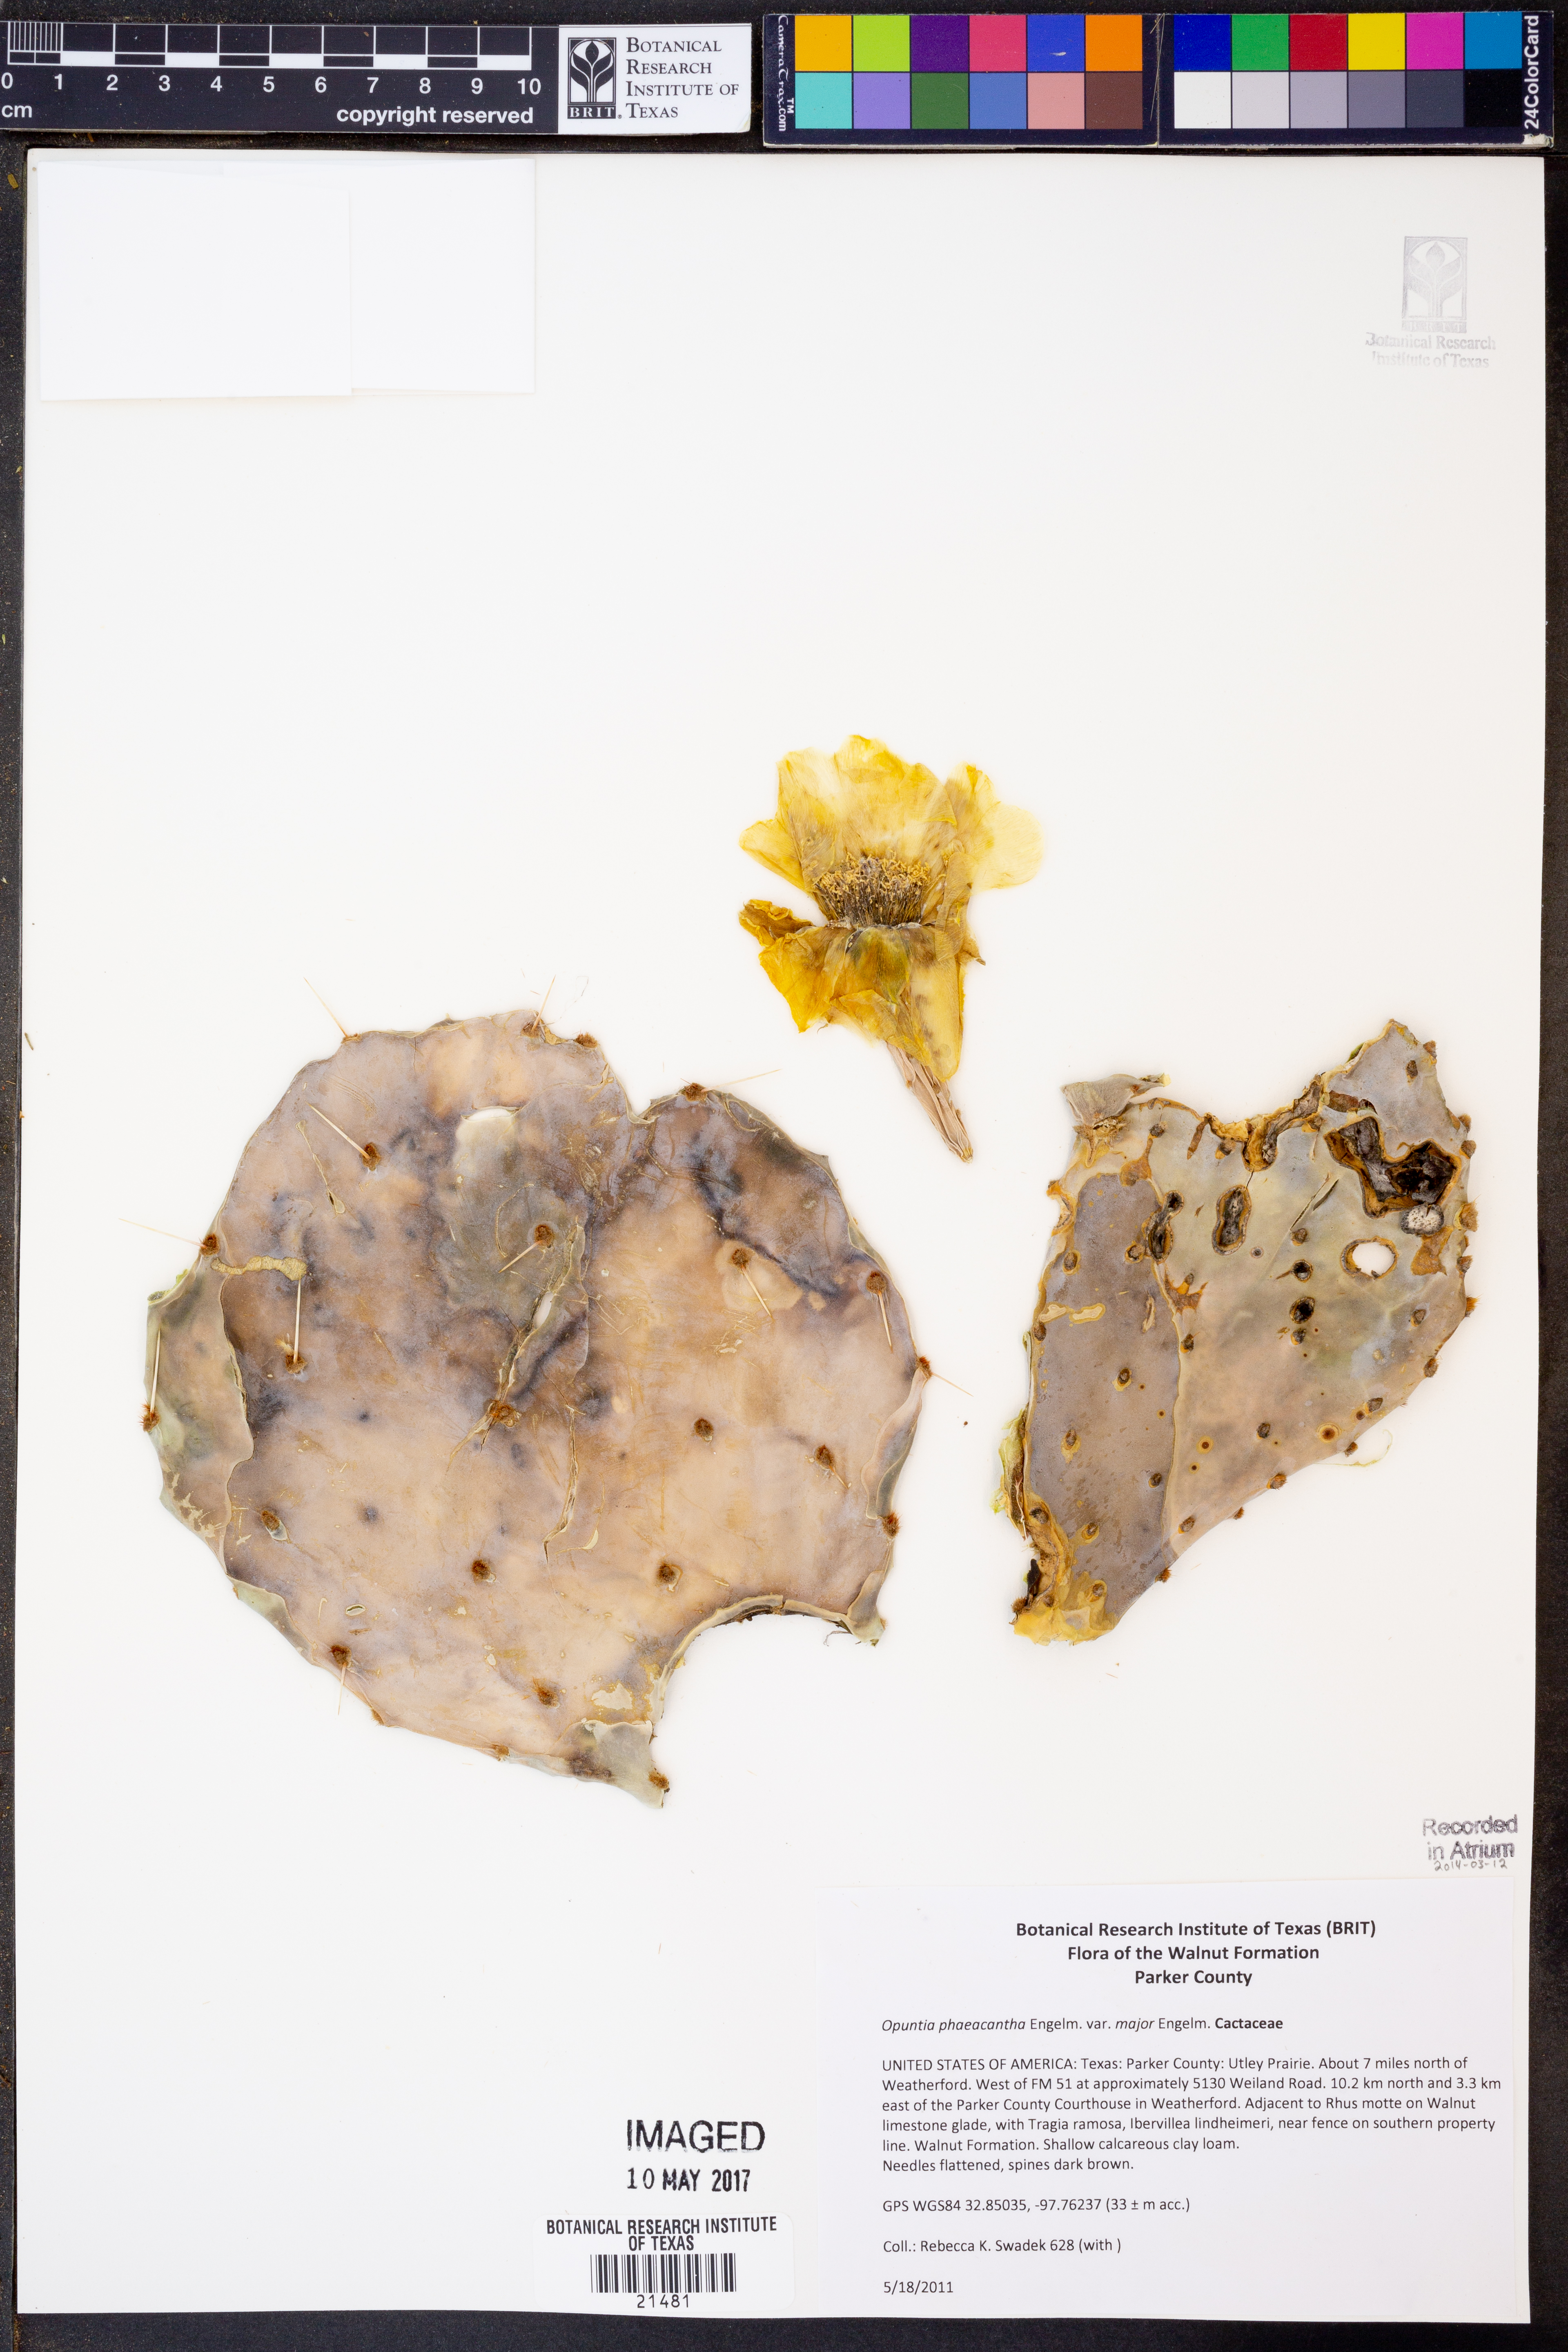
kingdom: Plantae
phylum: Tracheophyta
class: Magnoliopsida
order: Caryophyllales
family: Cactaceae
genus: Opuntia
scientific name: Opuntia phaeacantha
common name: New mexico prickly-pear
